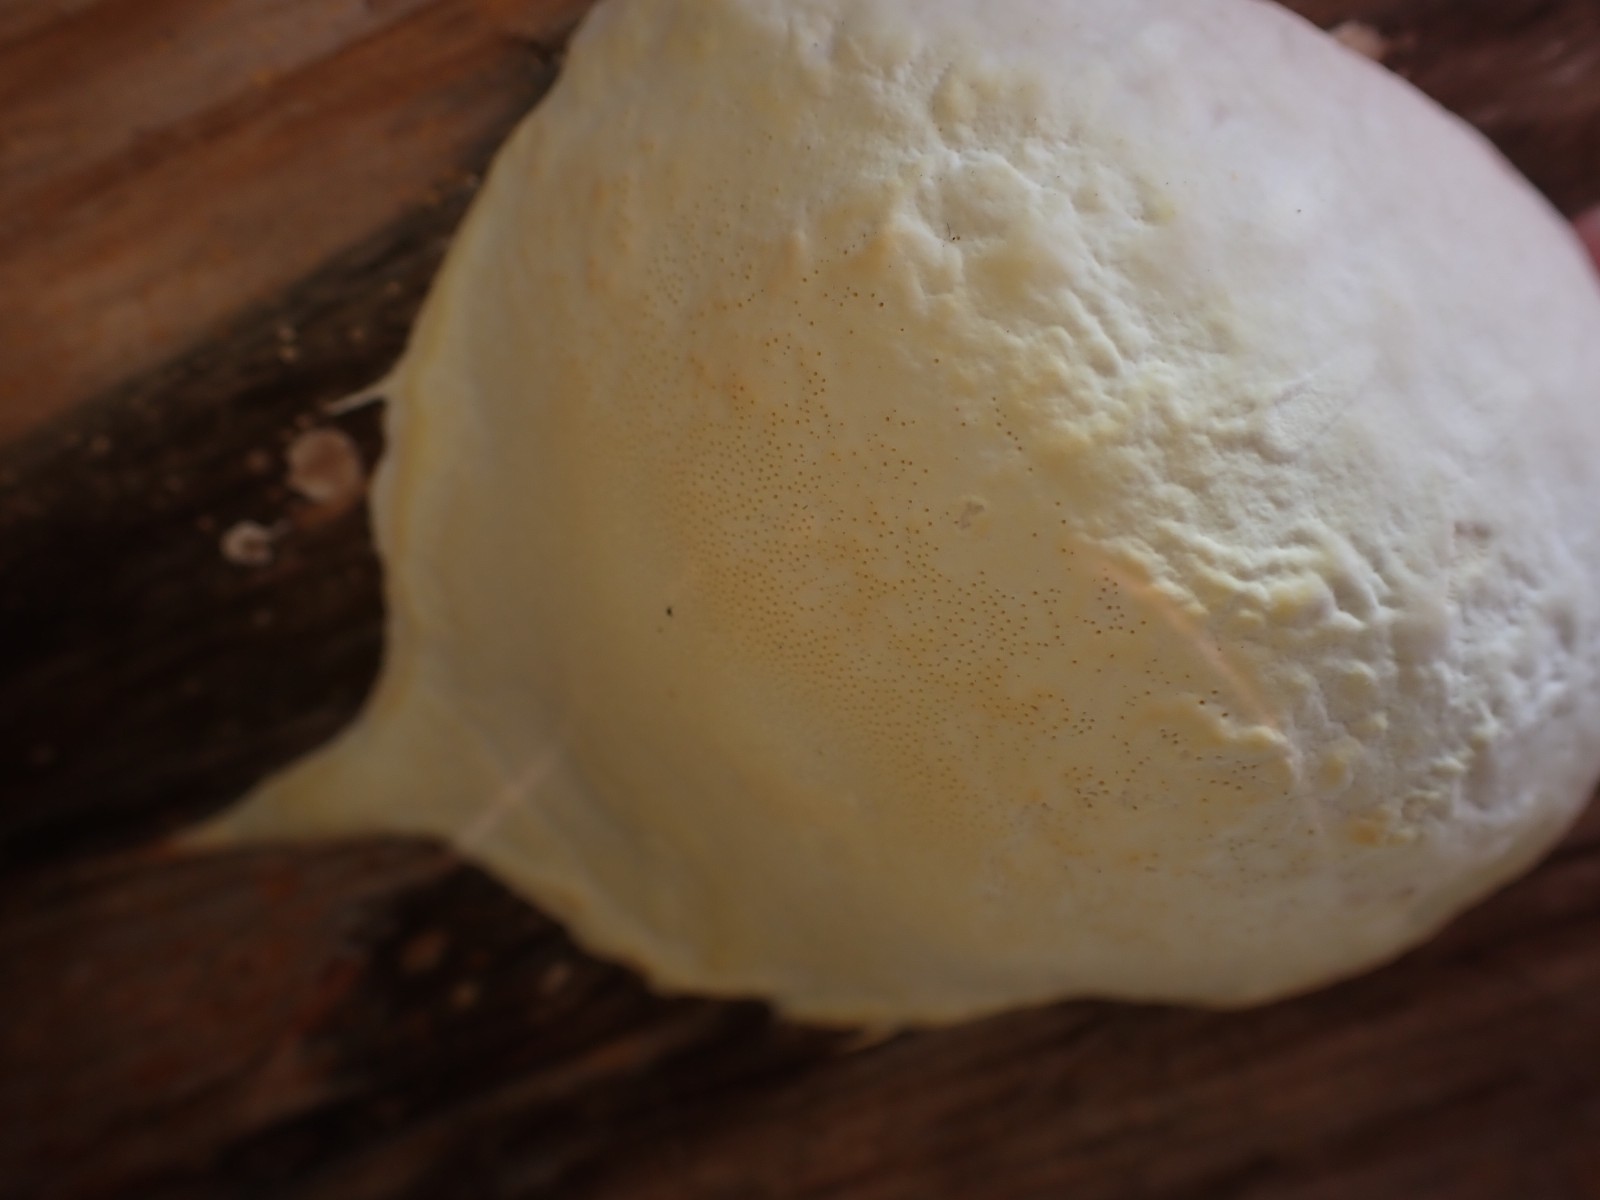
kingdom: Fungi
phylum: Basidiomycota
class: Agaricomycetes
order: Polyporales
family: Fomitopsidaceae
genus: Fomitopsis
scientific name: Fomitopsis pinicola
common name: randbæltet hovporesvamp
